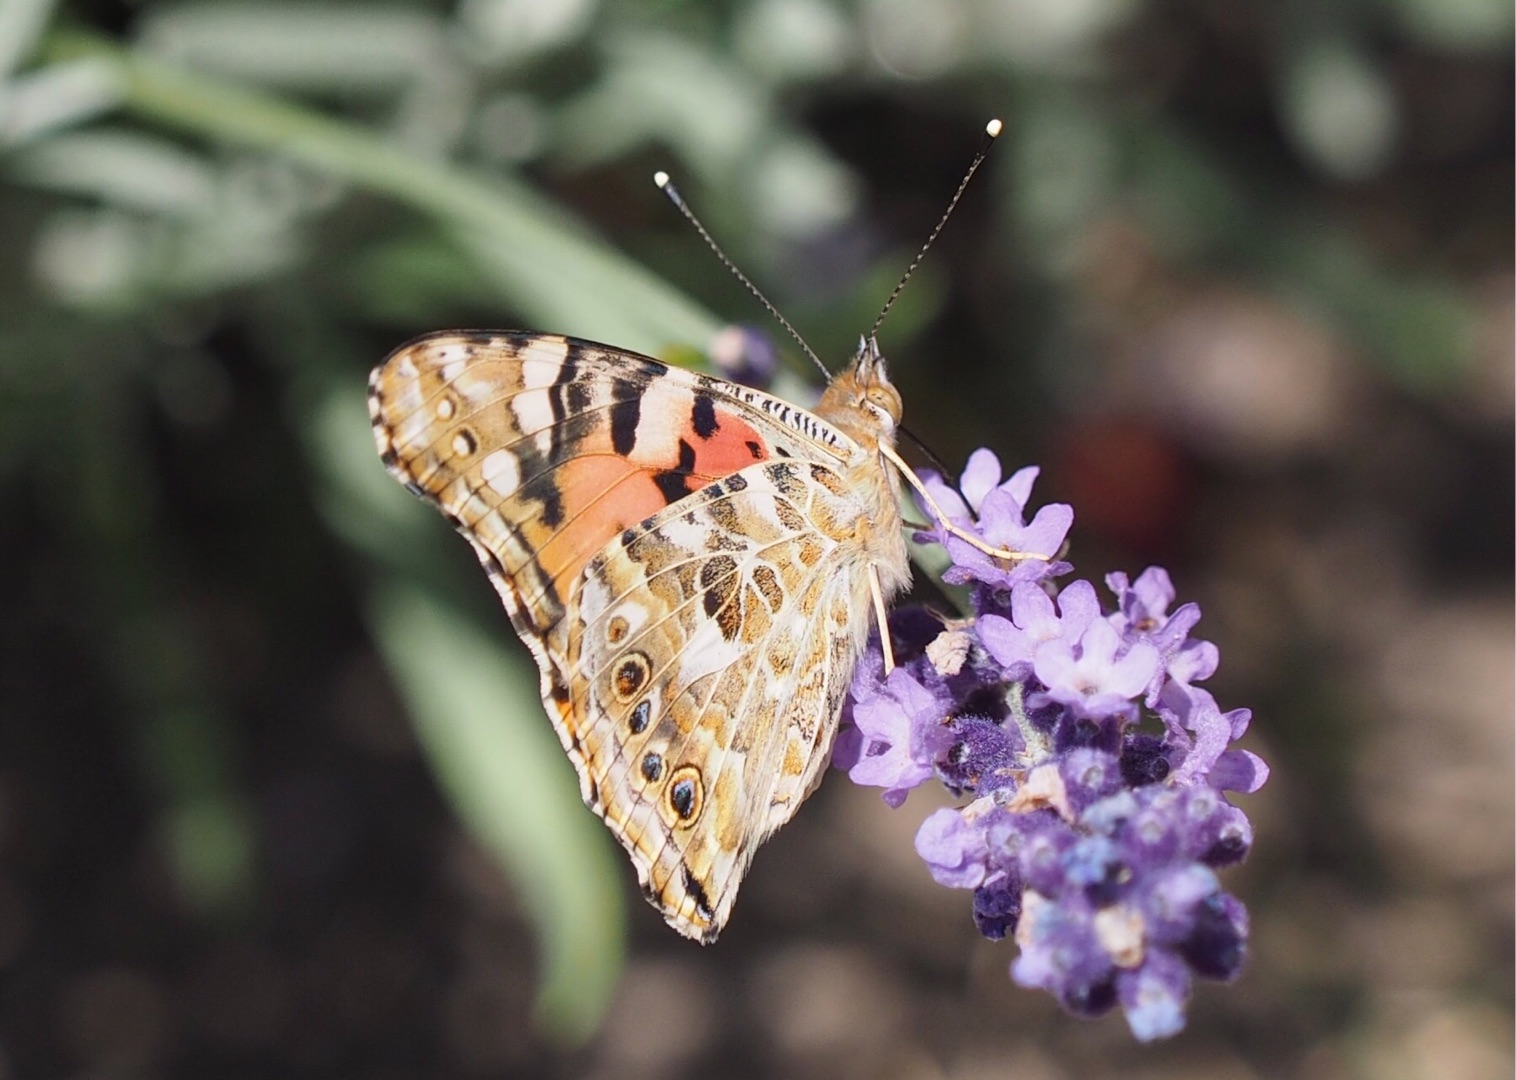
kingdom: Animalia
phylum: Arthropoda
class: Insecta
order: Lepidoptera
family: Nymphalidae
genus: Vanessa
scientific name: Vanessa cardui
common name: Tidselsommerfugl
